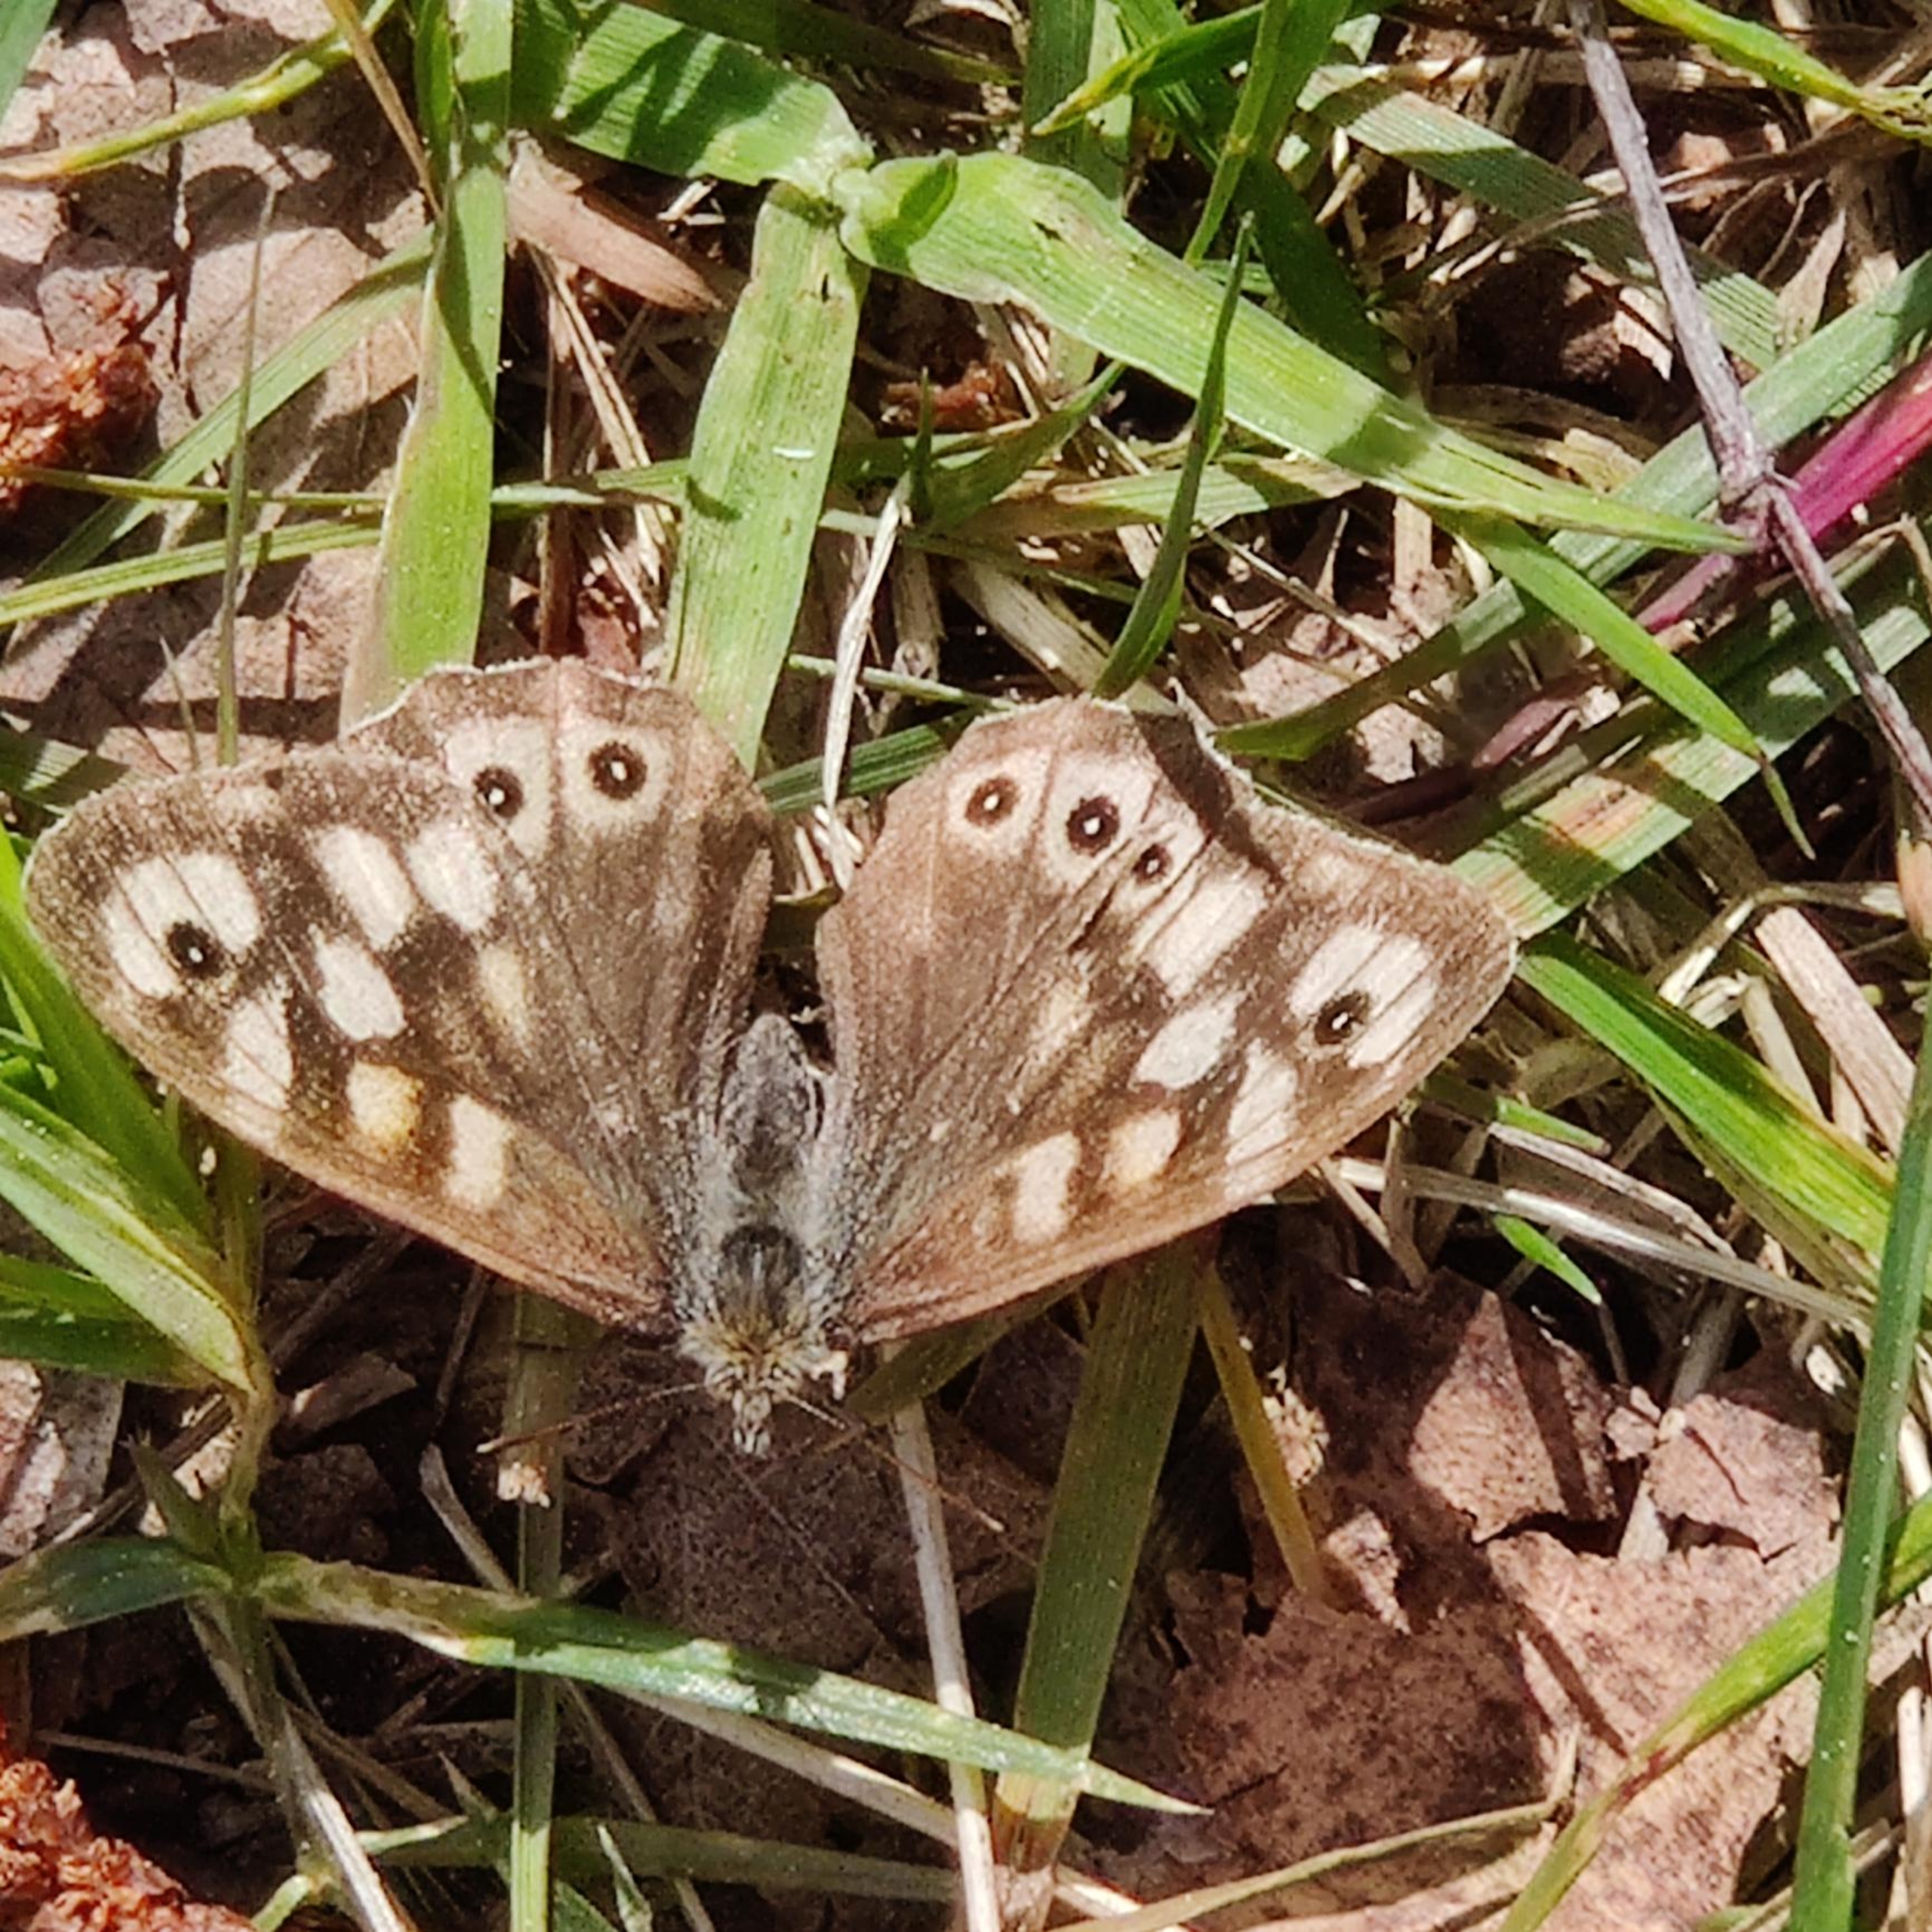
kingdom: Animalia
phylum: Arthropoda
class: Insecta
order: Lepidoptera
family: Nymphalidae
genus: Pararge
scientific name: Pararge aegeria
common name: Skovrandøje
